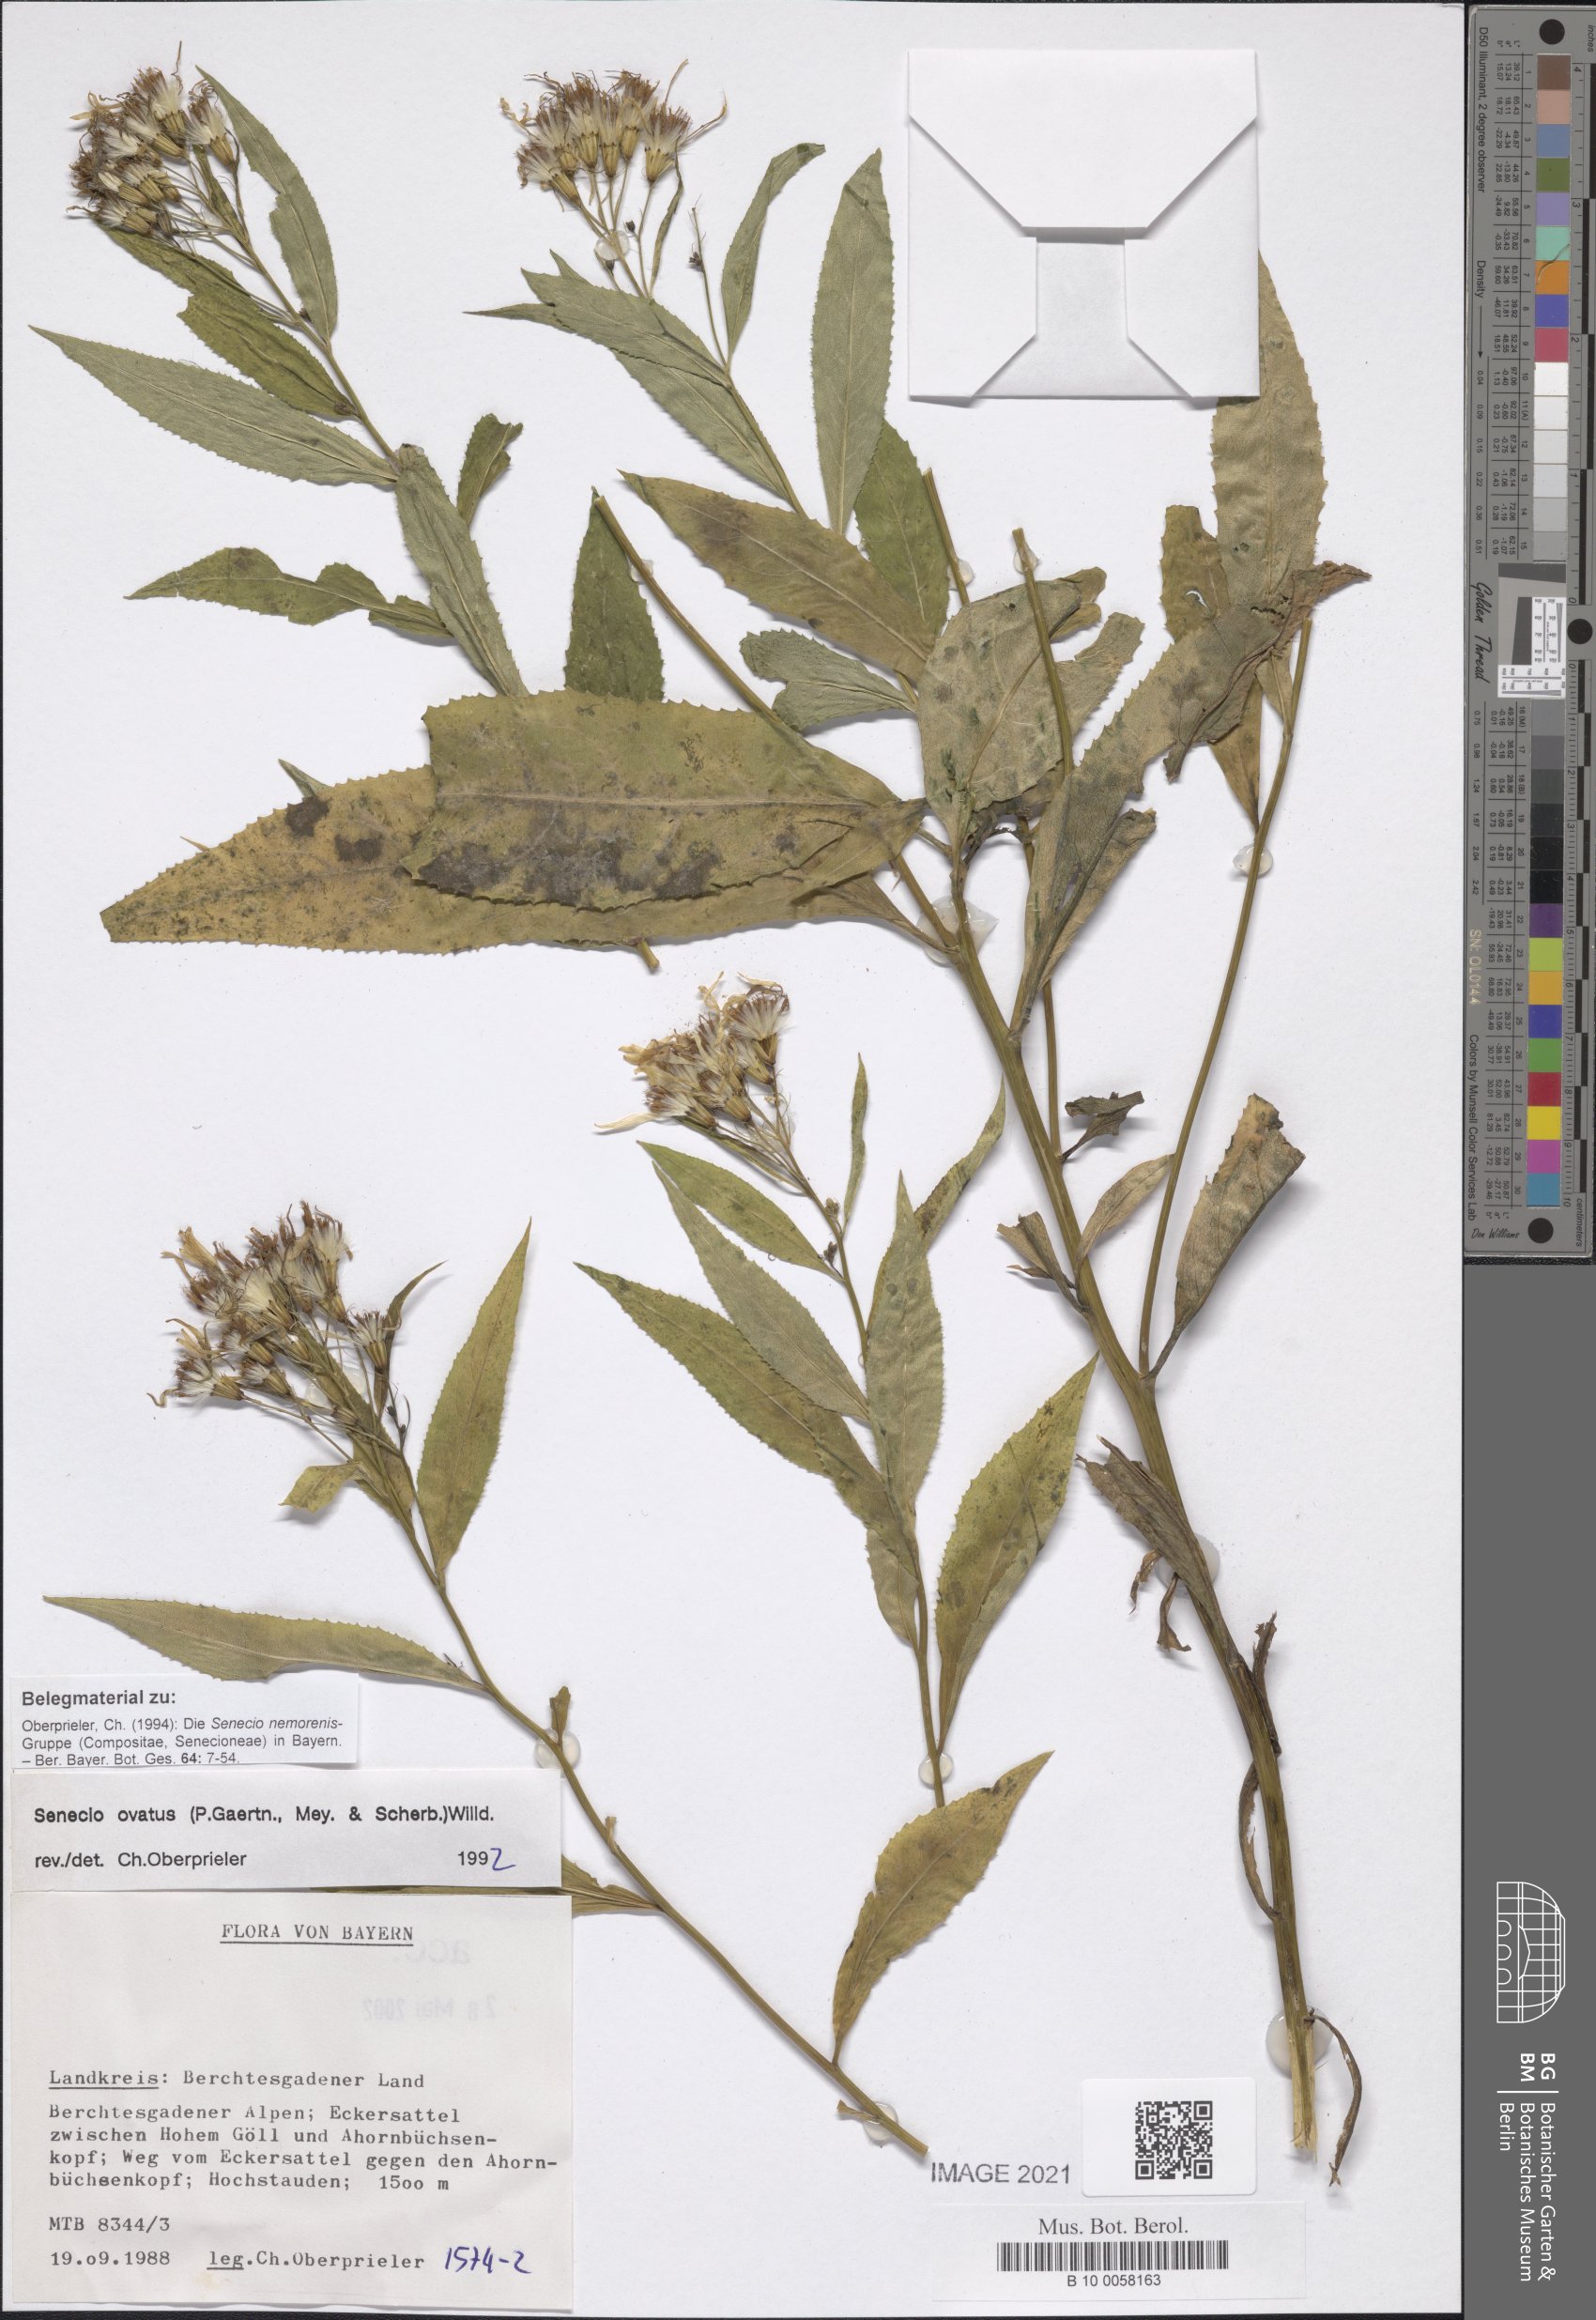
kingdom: Plantae
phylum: Tracheophyta
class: Magnoliopsida
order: Asterales
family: Asteraceae
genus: Senecio
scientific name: Senecio ovatus
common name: Wood ragwort
